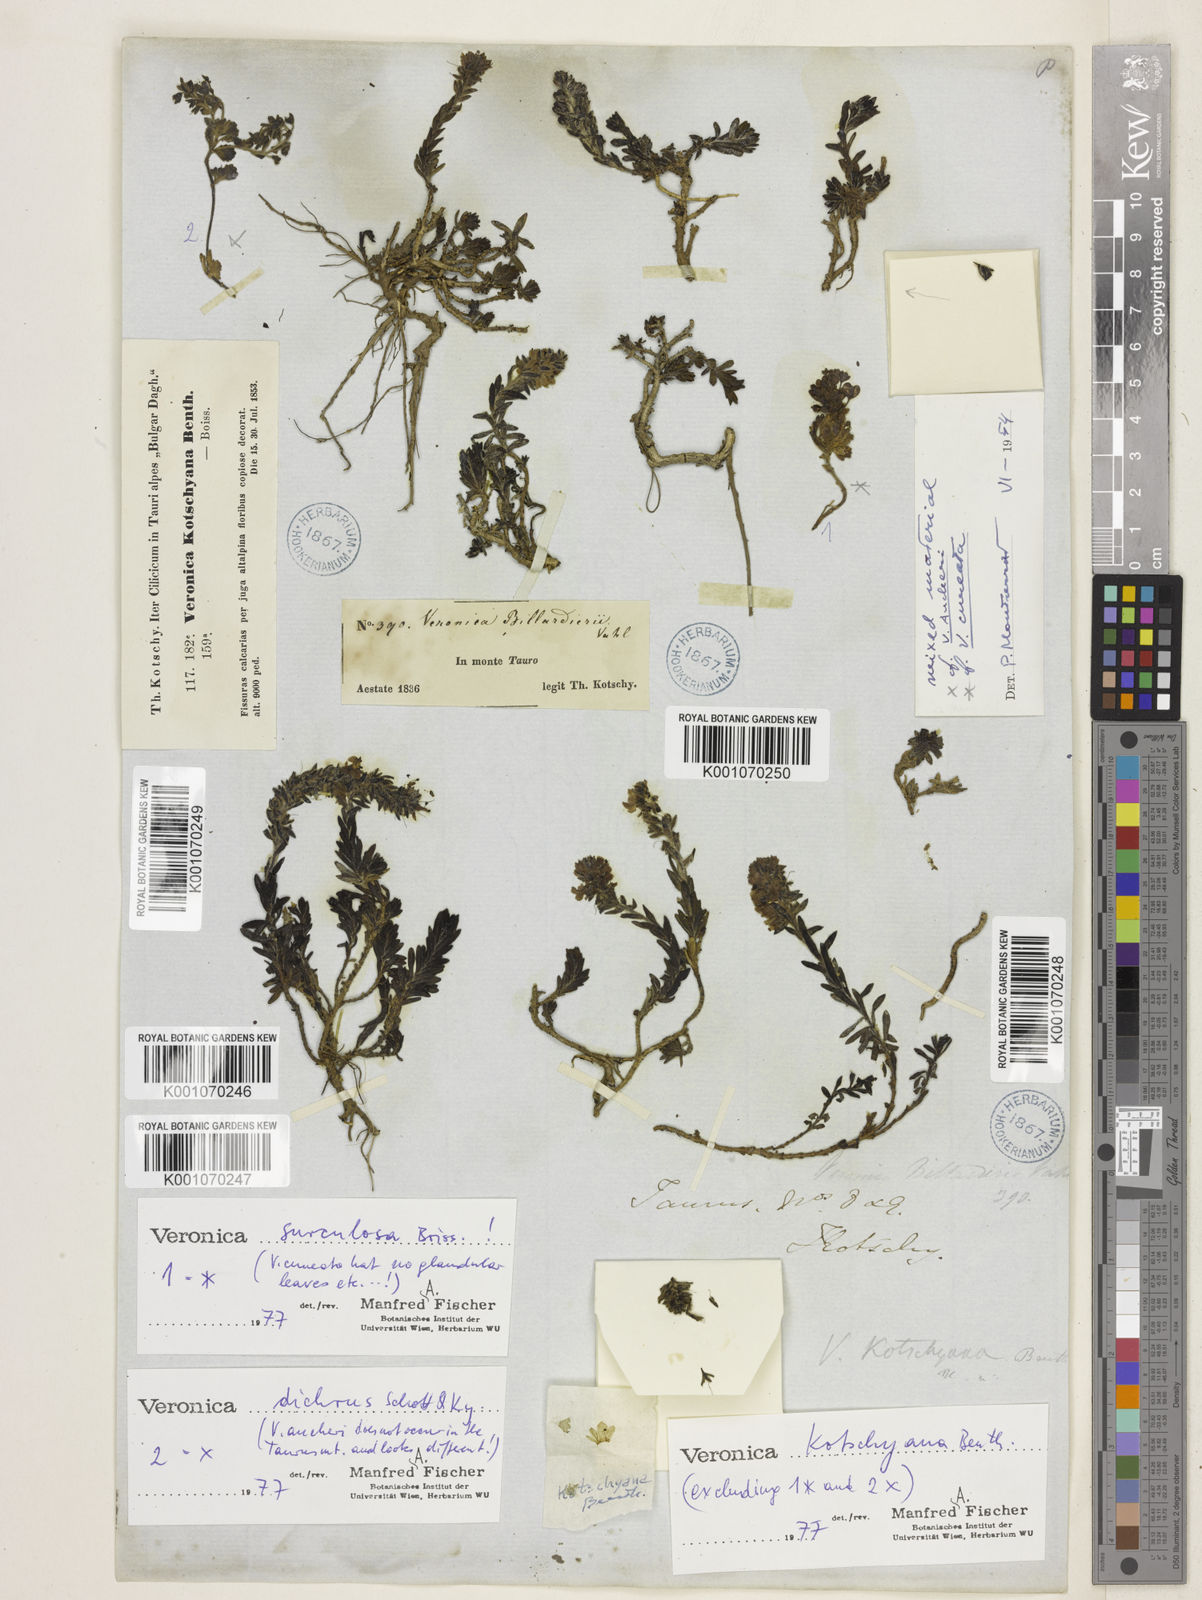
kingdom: Plantae
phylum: Tracheophyta
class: Magnoliopsida
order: Lamiales
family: Plantaginaceae
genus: Veronica
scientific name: Veronica kotschyana
